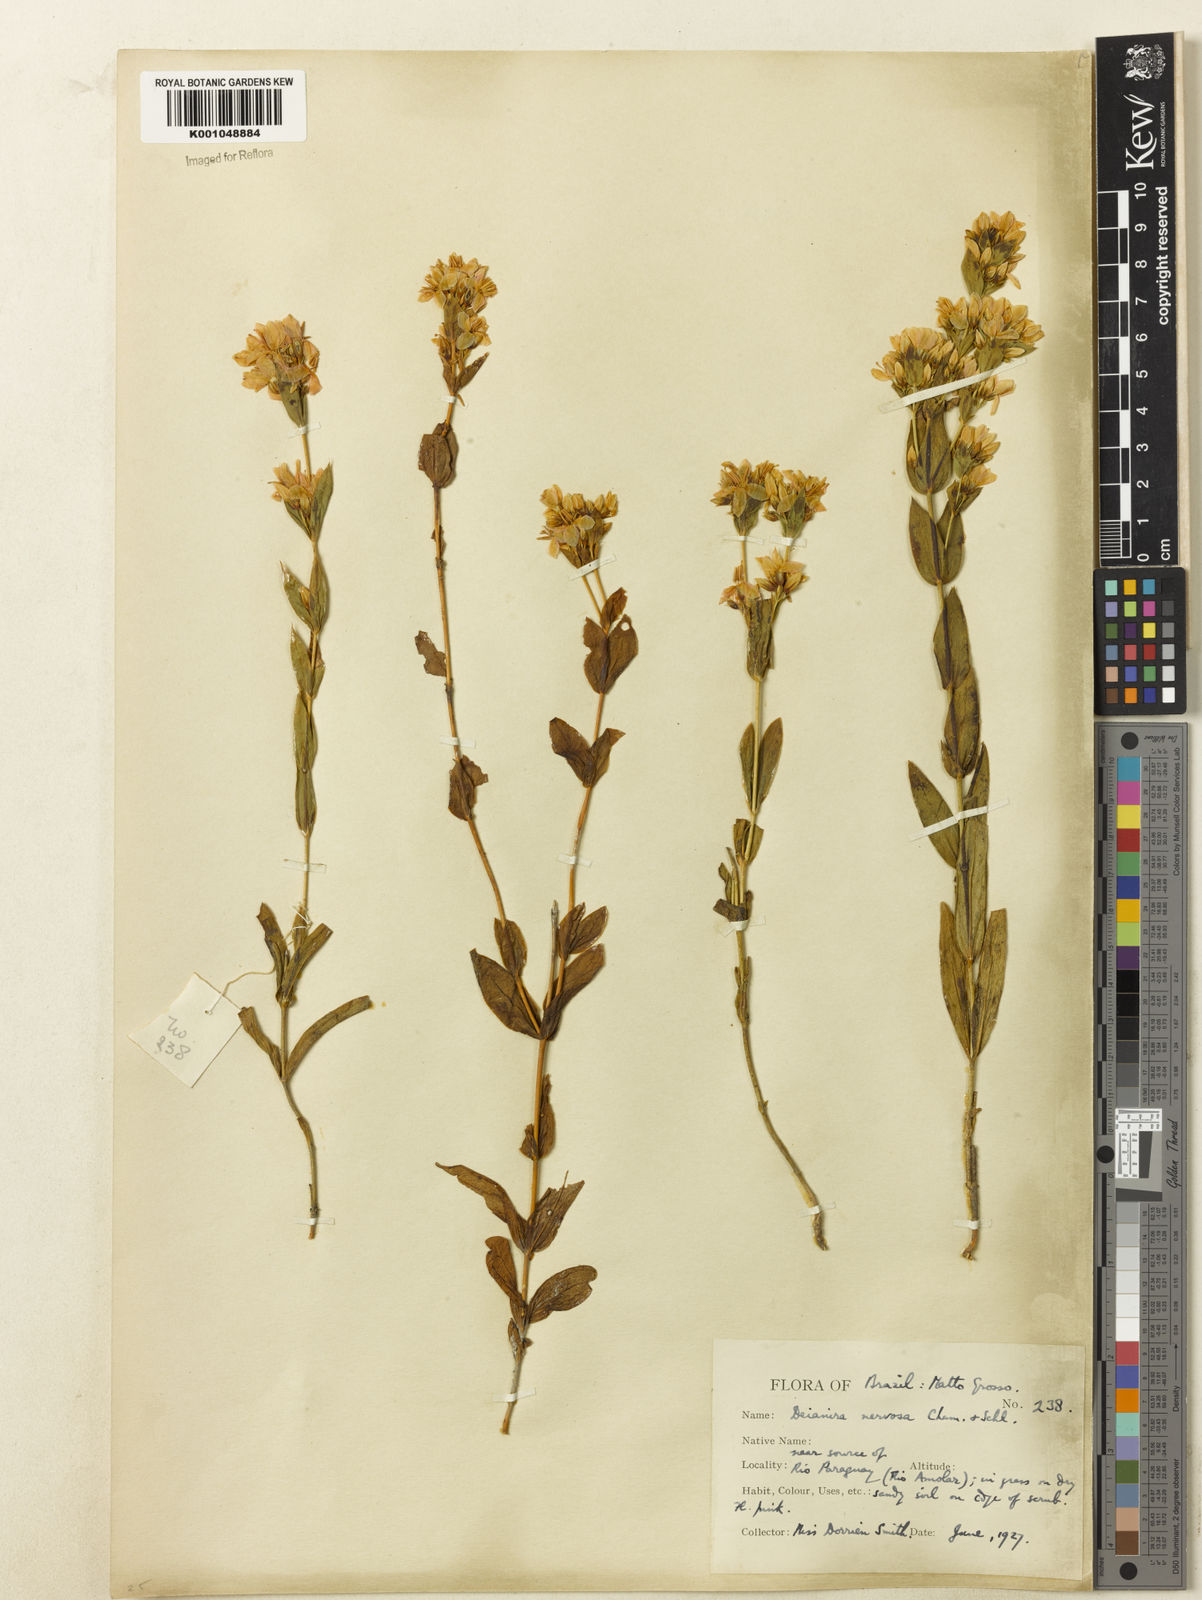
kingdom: Plantae
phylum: Tracheophyta
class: Magnoliopsida
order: Gentianales
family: Gentianaceae
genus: Deianira
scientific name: Deianira
